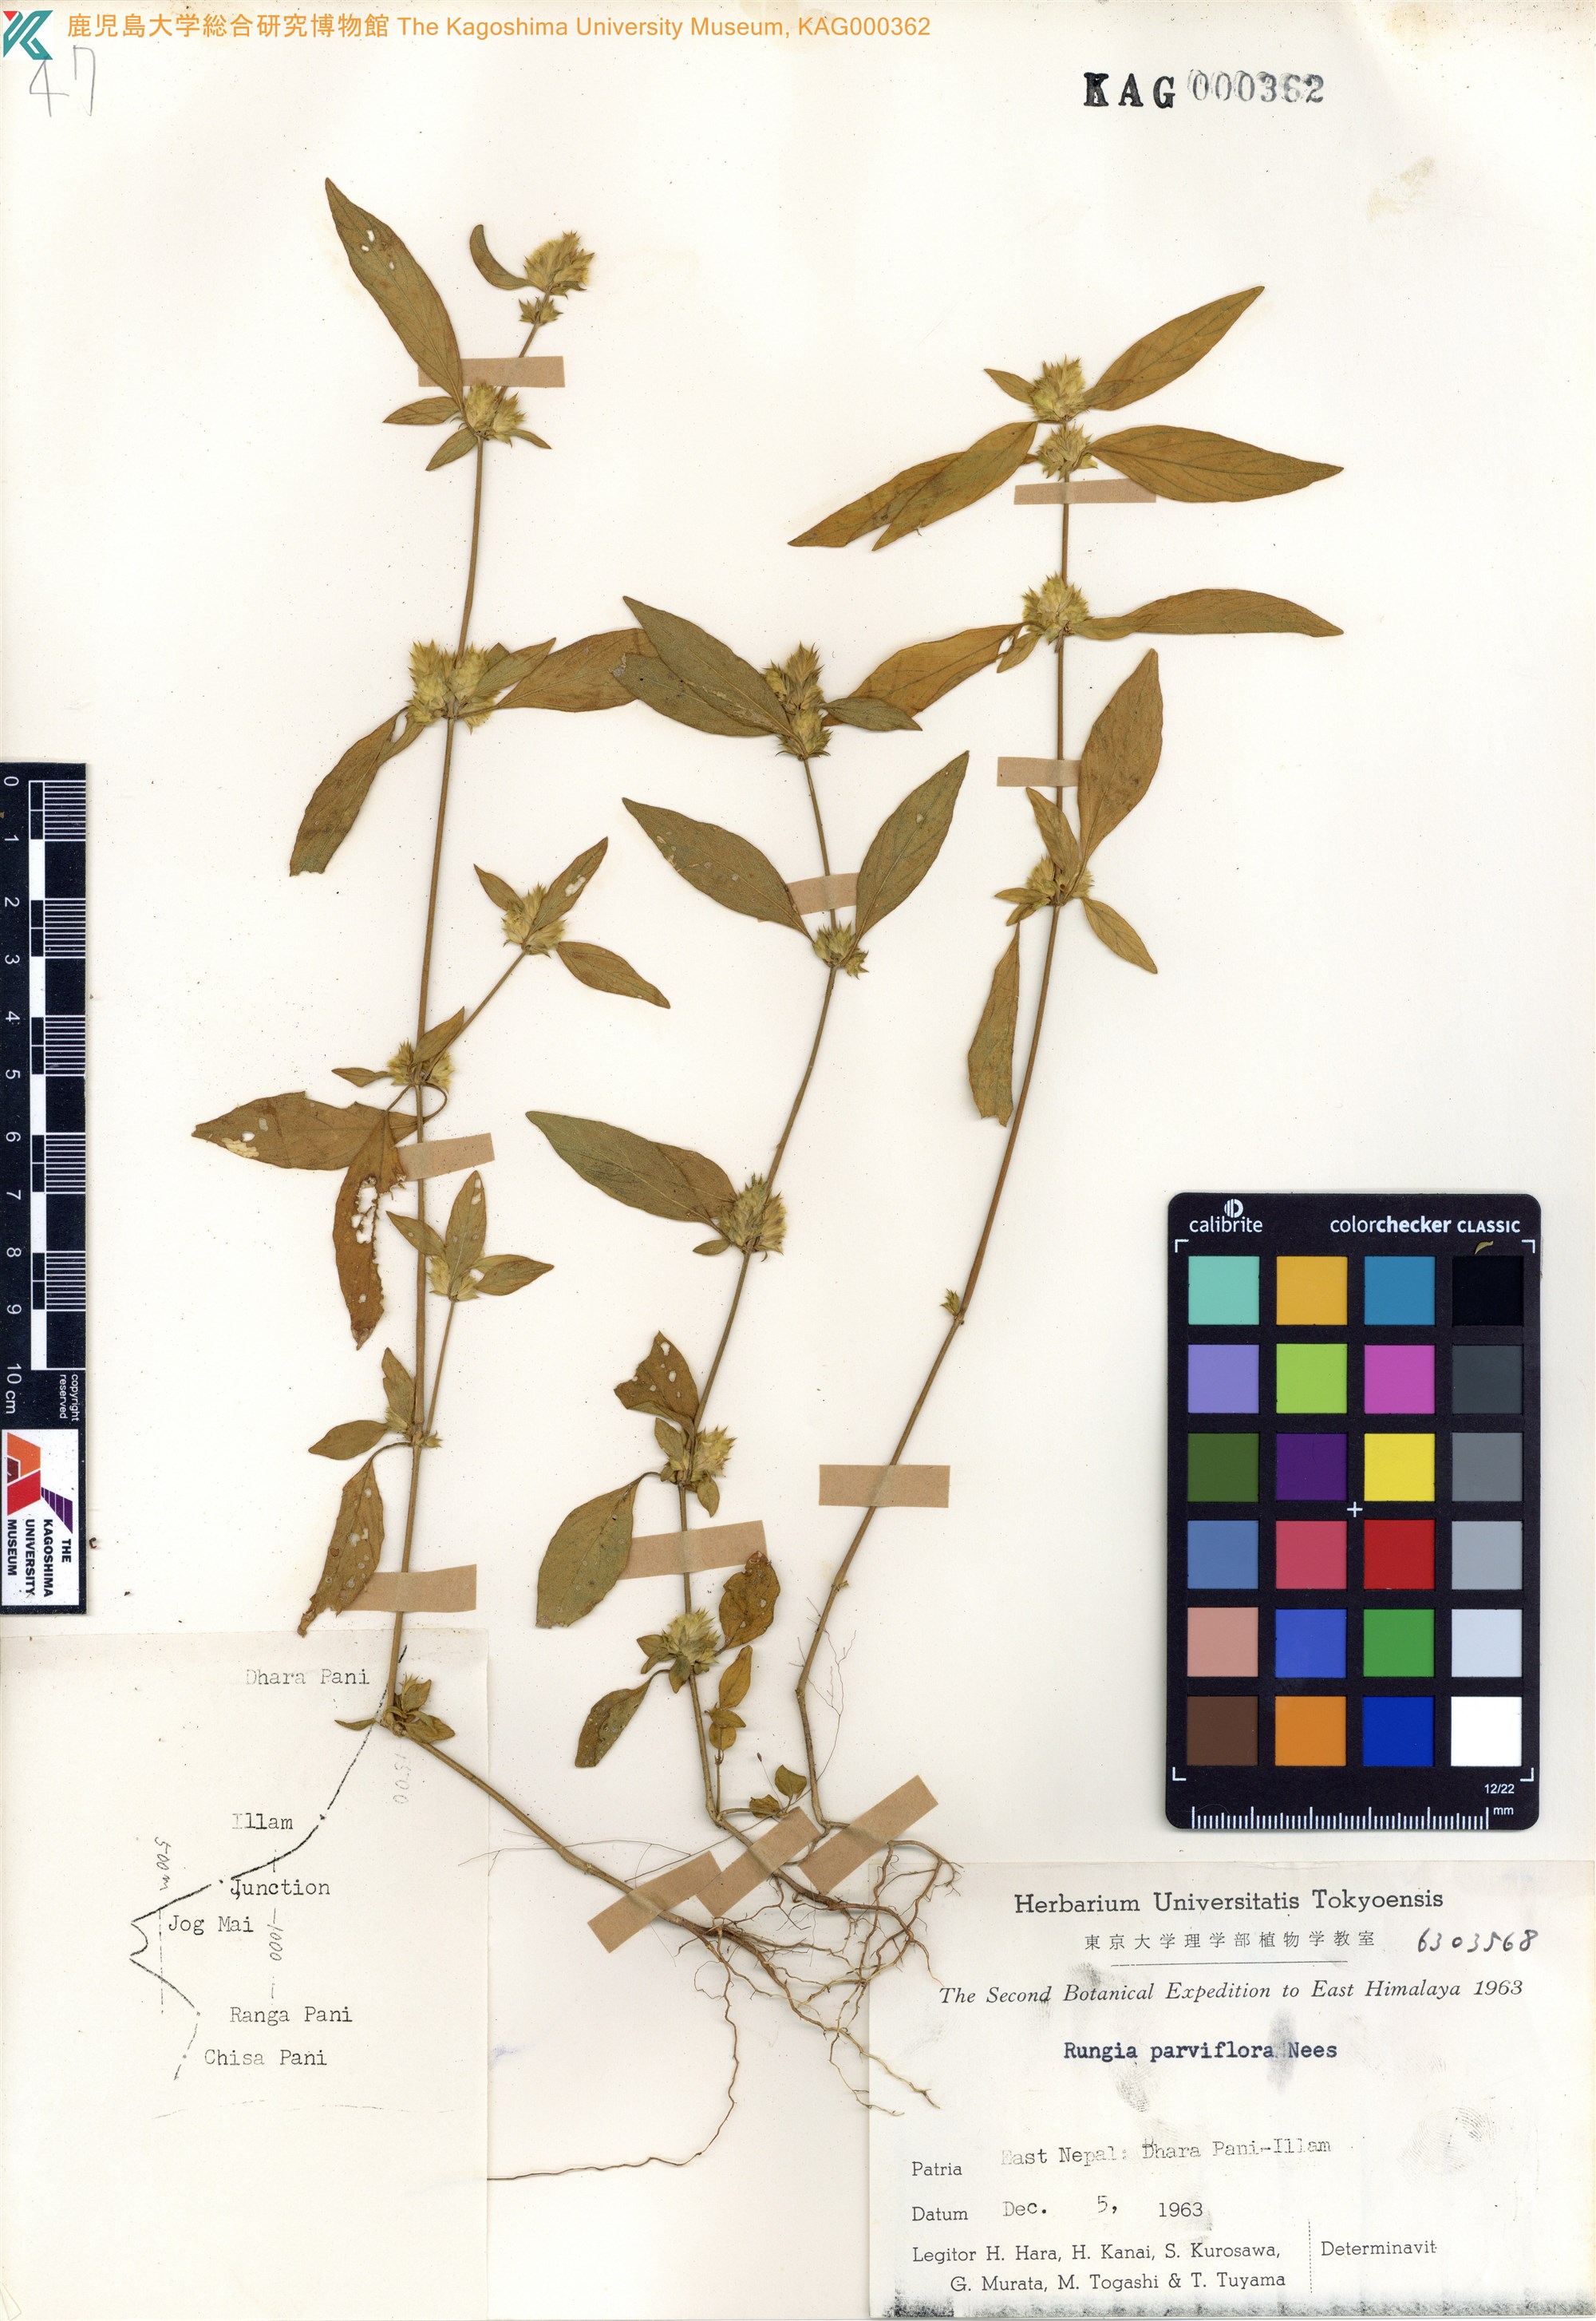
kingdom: Plantae
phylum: Tracheophyta
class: Magnoliopsida
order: Lamiales
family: Acanthaceae
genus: Rungia
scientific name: Rungia parviflora
